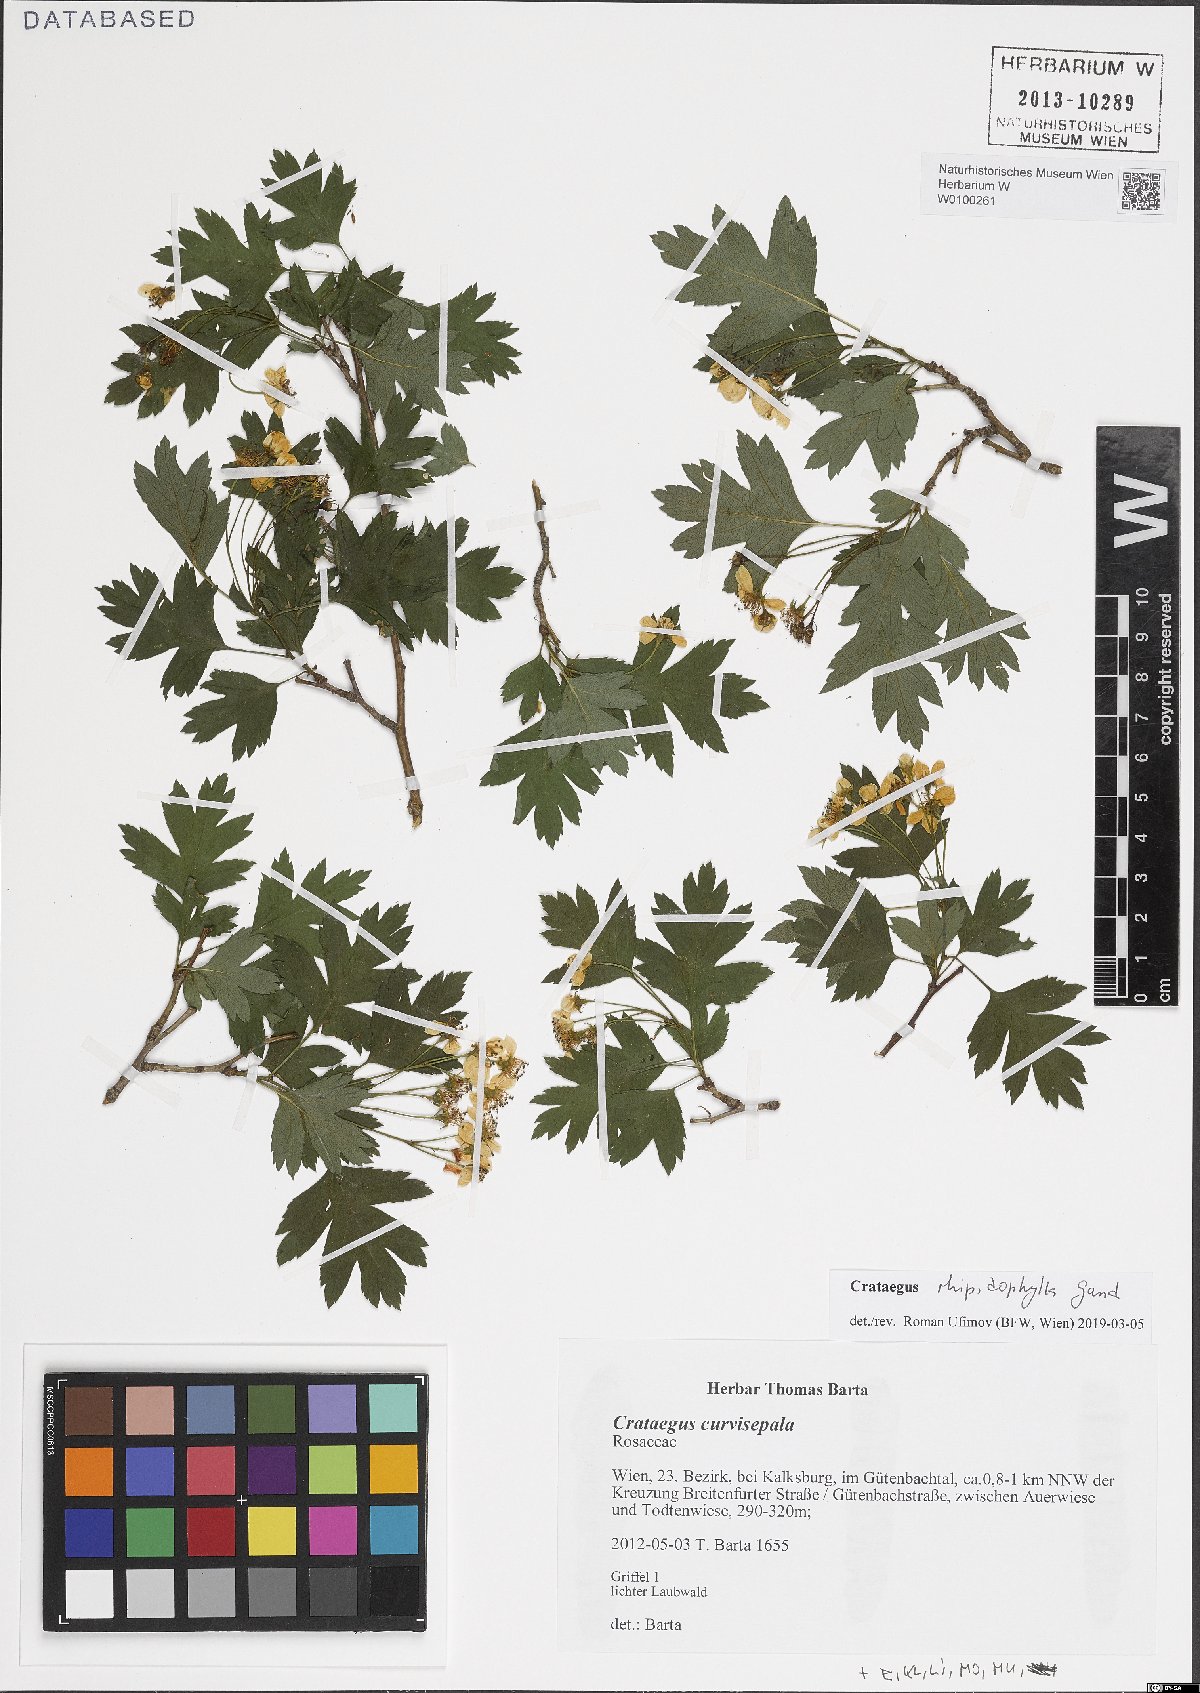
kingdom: Plantae
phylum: Tracheophyta
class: Magnoliopsida
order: Rosales
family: Rosaceae
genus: Crataegus
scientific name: Crataegus rhipidophylla
